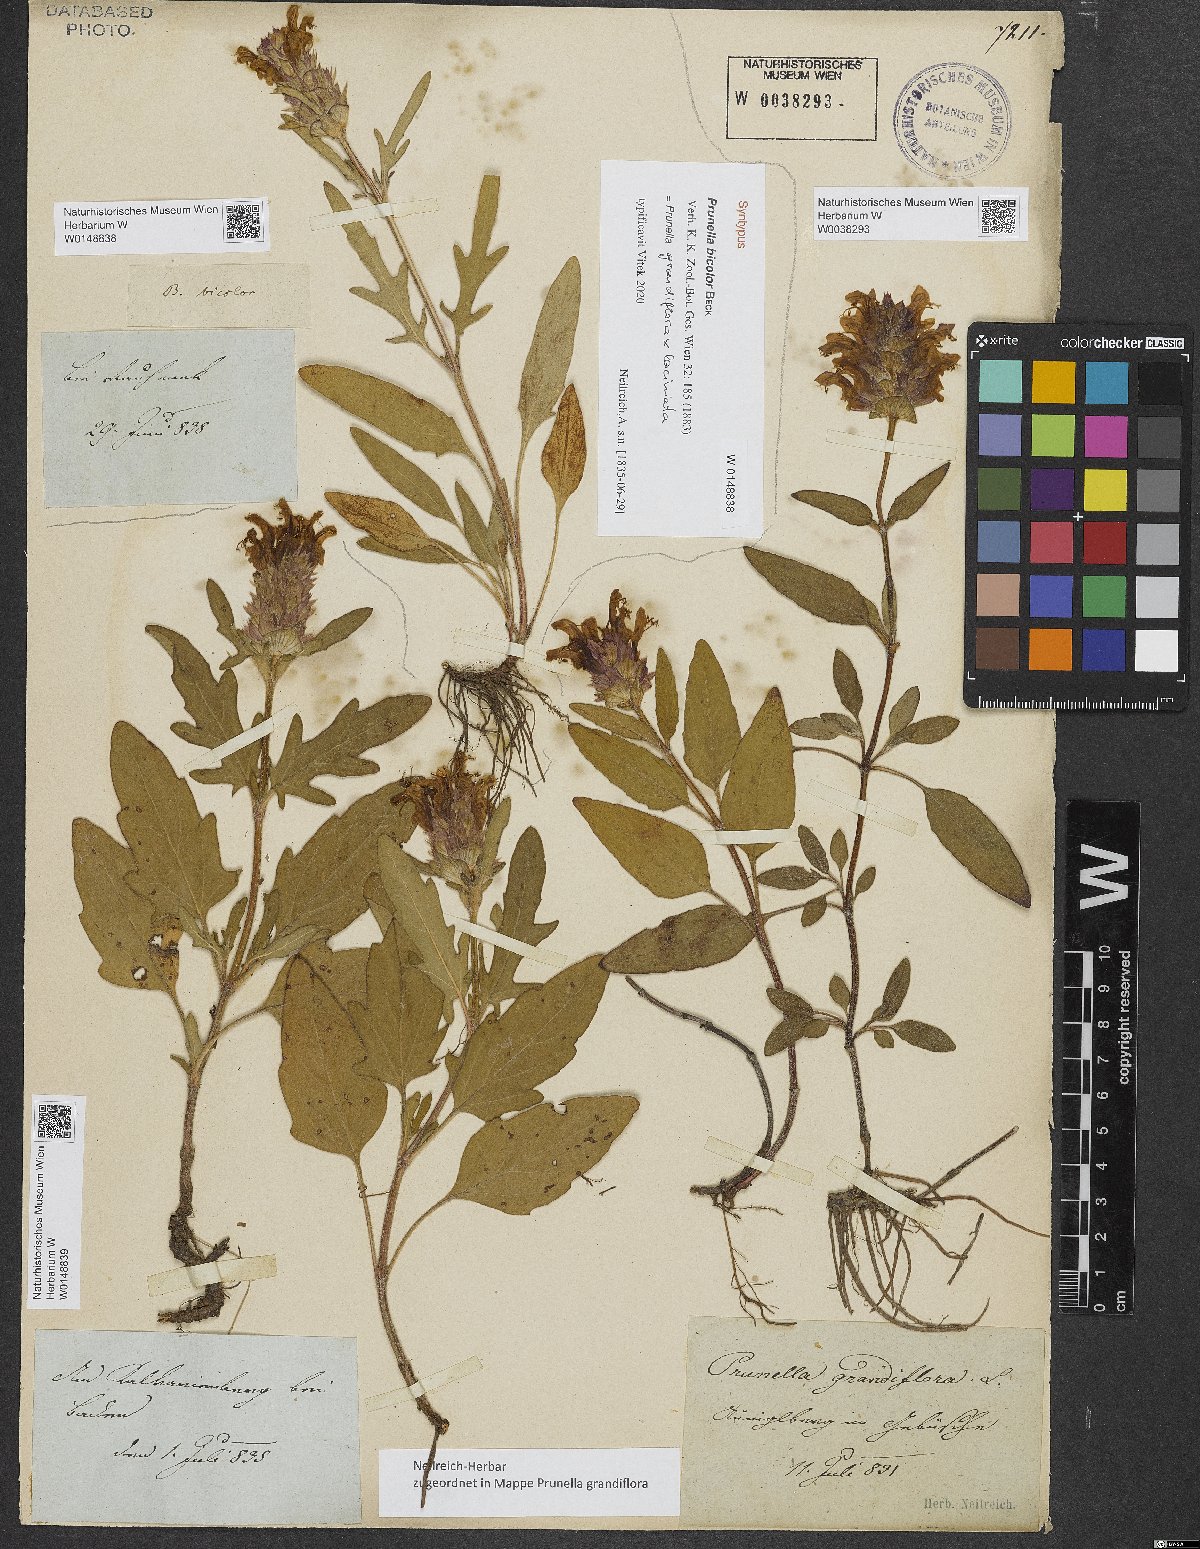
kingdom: Plantae
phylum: Tracheophyta
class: Magnoliopsida
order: Lamiales
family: Lamiaceae
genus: Prunella
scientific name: Prunella bicolor
